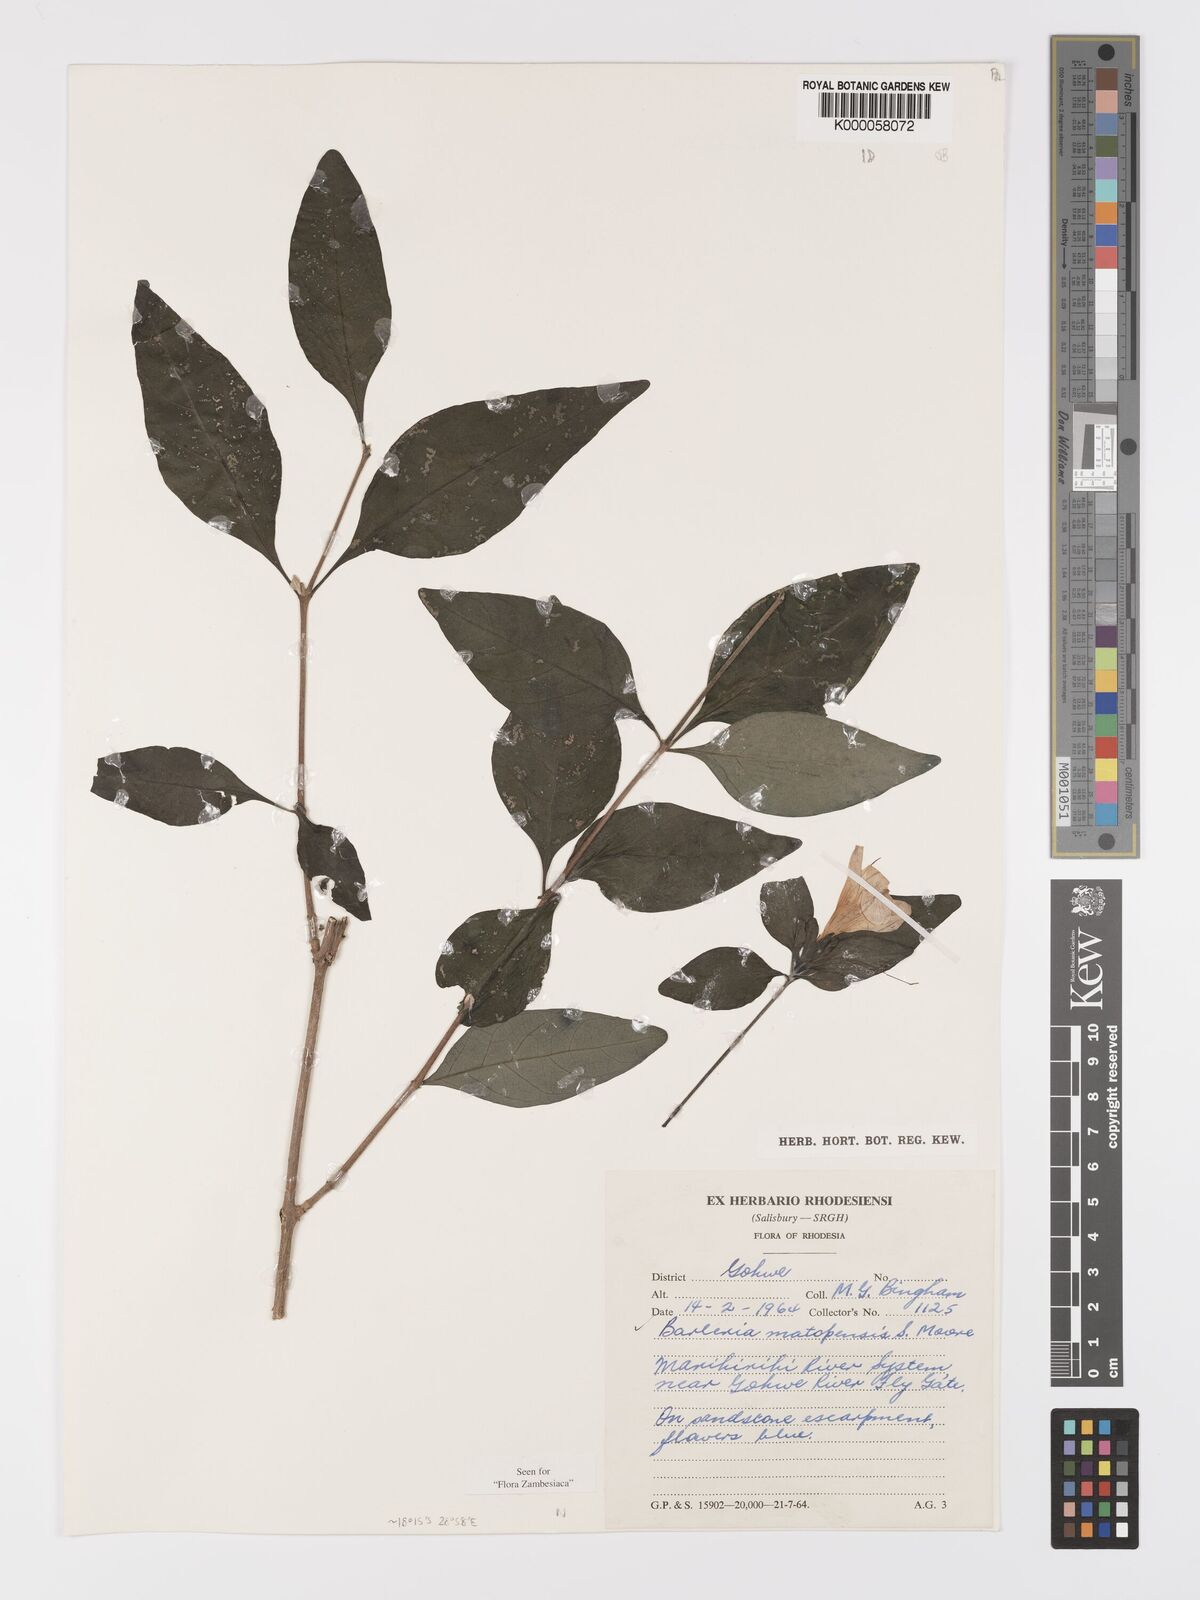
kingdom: Plantae
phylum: Tracheophyta
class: Magnoliopsida
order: Lamiales
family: Acanthaceae
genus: Barleria
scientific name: Barleria matopensis
